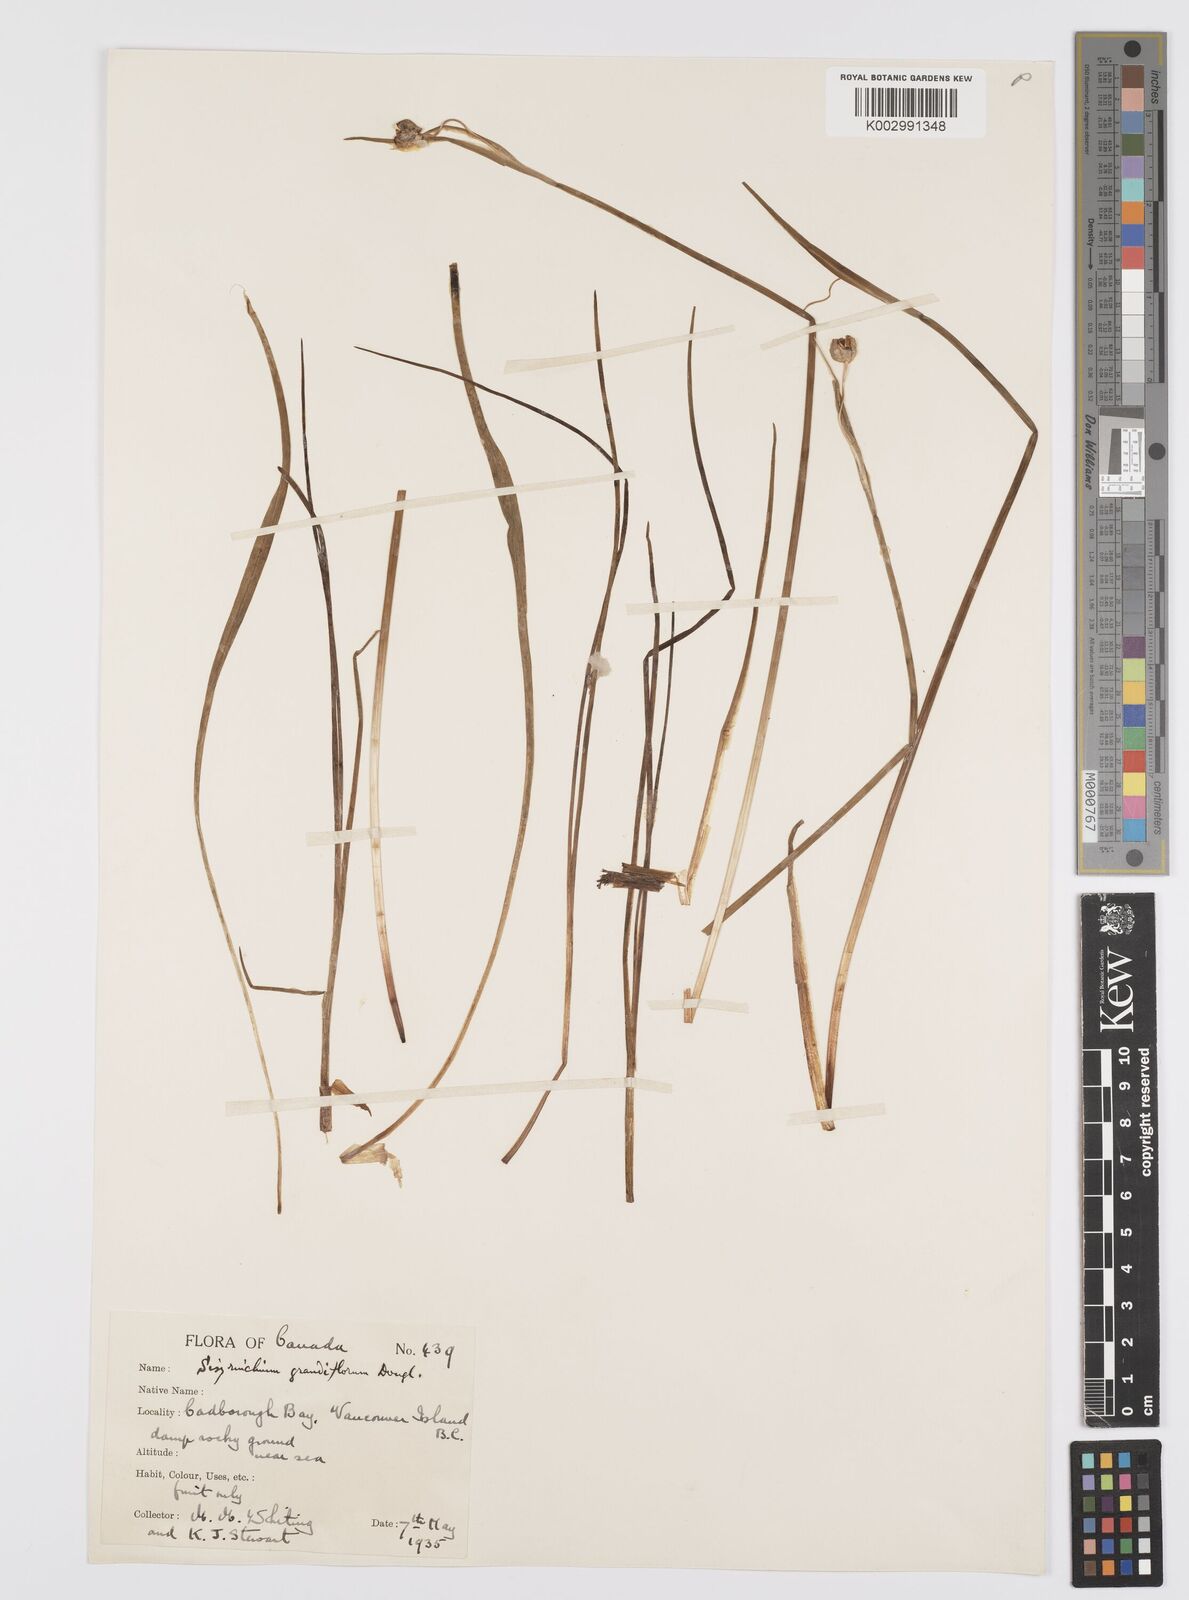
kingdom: Plantae
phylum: Tracheophyta
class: Liliopsida
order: Asparagales
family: Iridaceae
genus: Olsynium
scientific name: Olsynium douglasii
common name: Douglas' grasswidow
